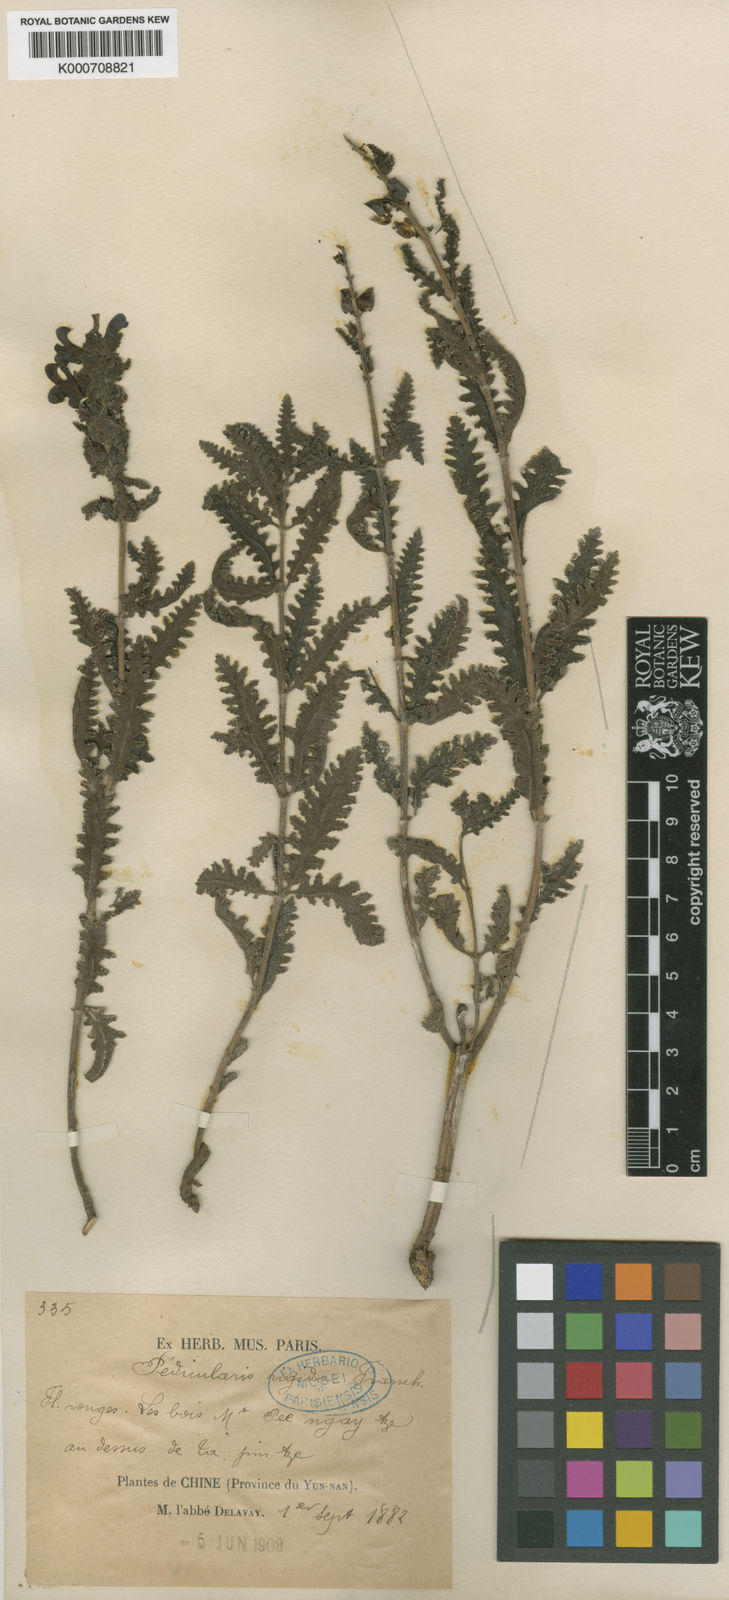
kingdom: Plantae
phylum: Tracheophyta
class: Magnoliopsida
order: Lamiales
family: Orobanchaceae
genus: Pedicularis
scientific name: Pedicularis rigida
